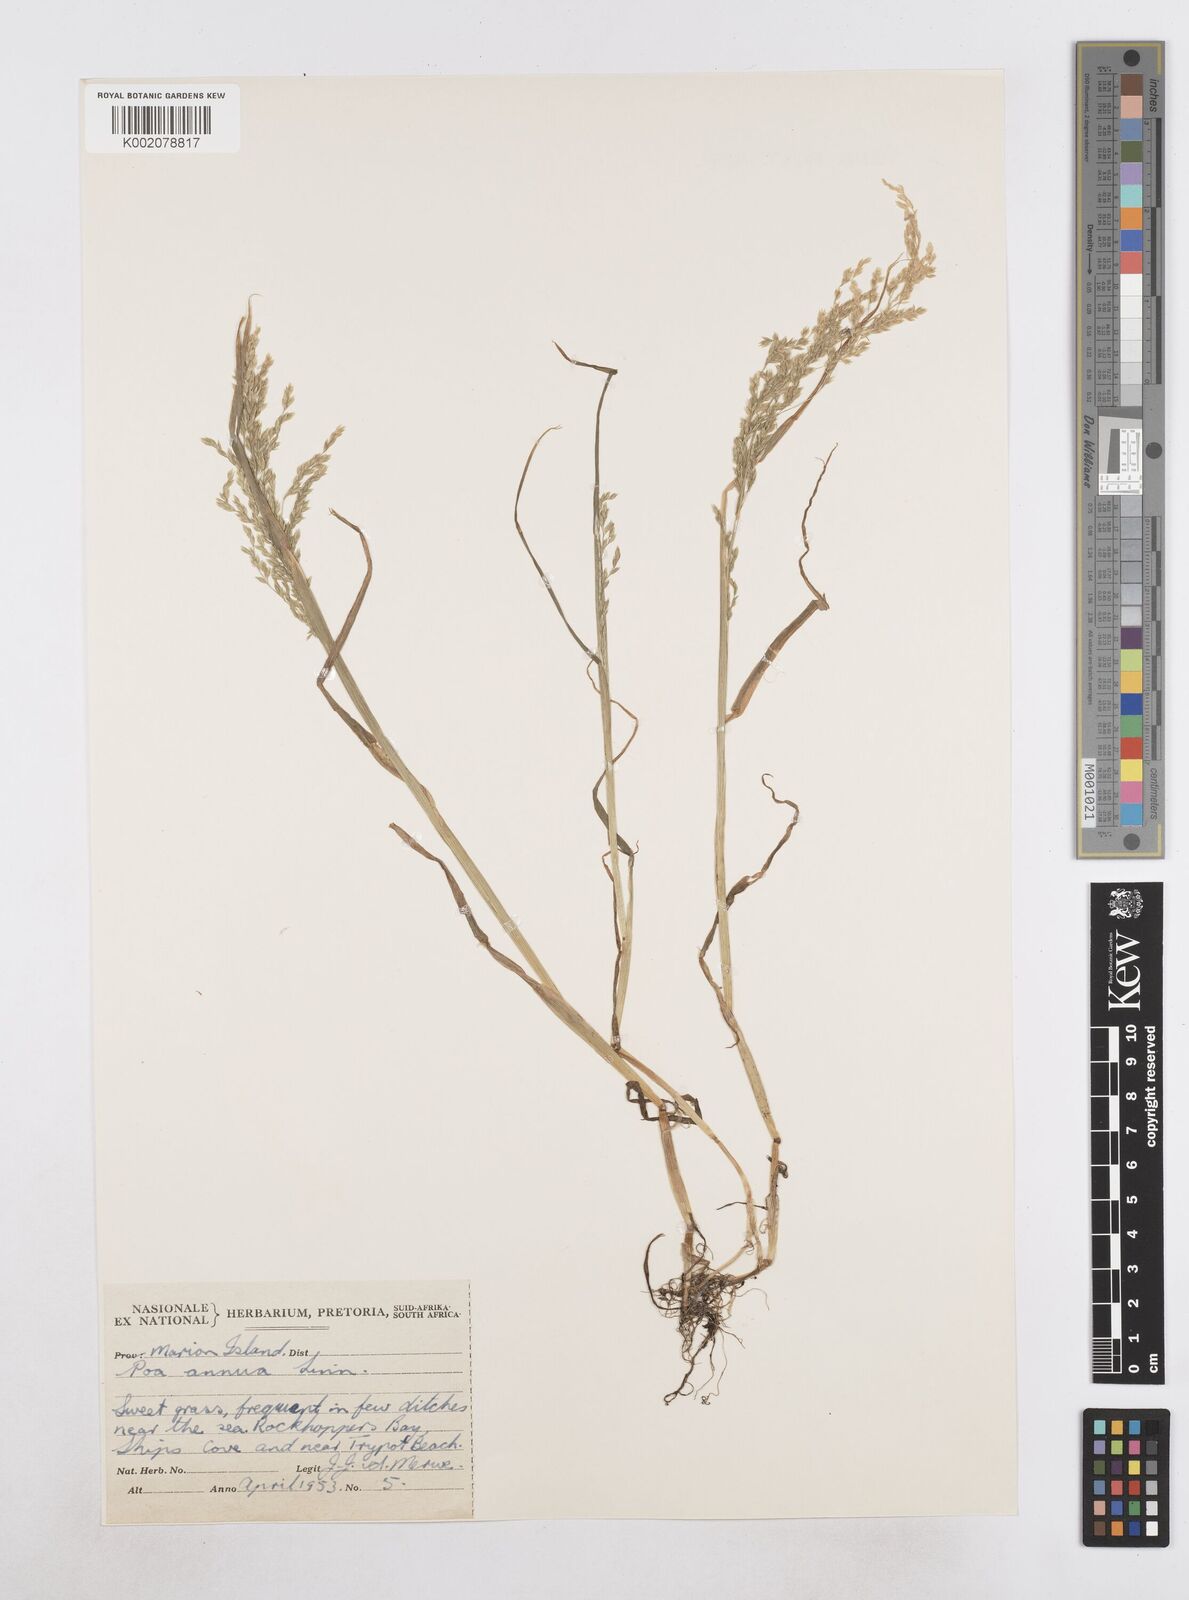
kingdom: Plantae
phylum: Tracheophyta
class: Liliopsida
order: Poales
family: Poaceae
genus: Poa
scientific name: Poa annua
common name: Annual bluegrass
